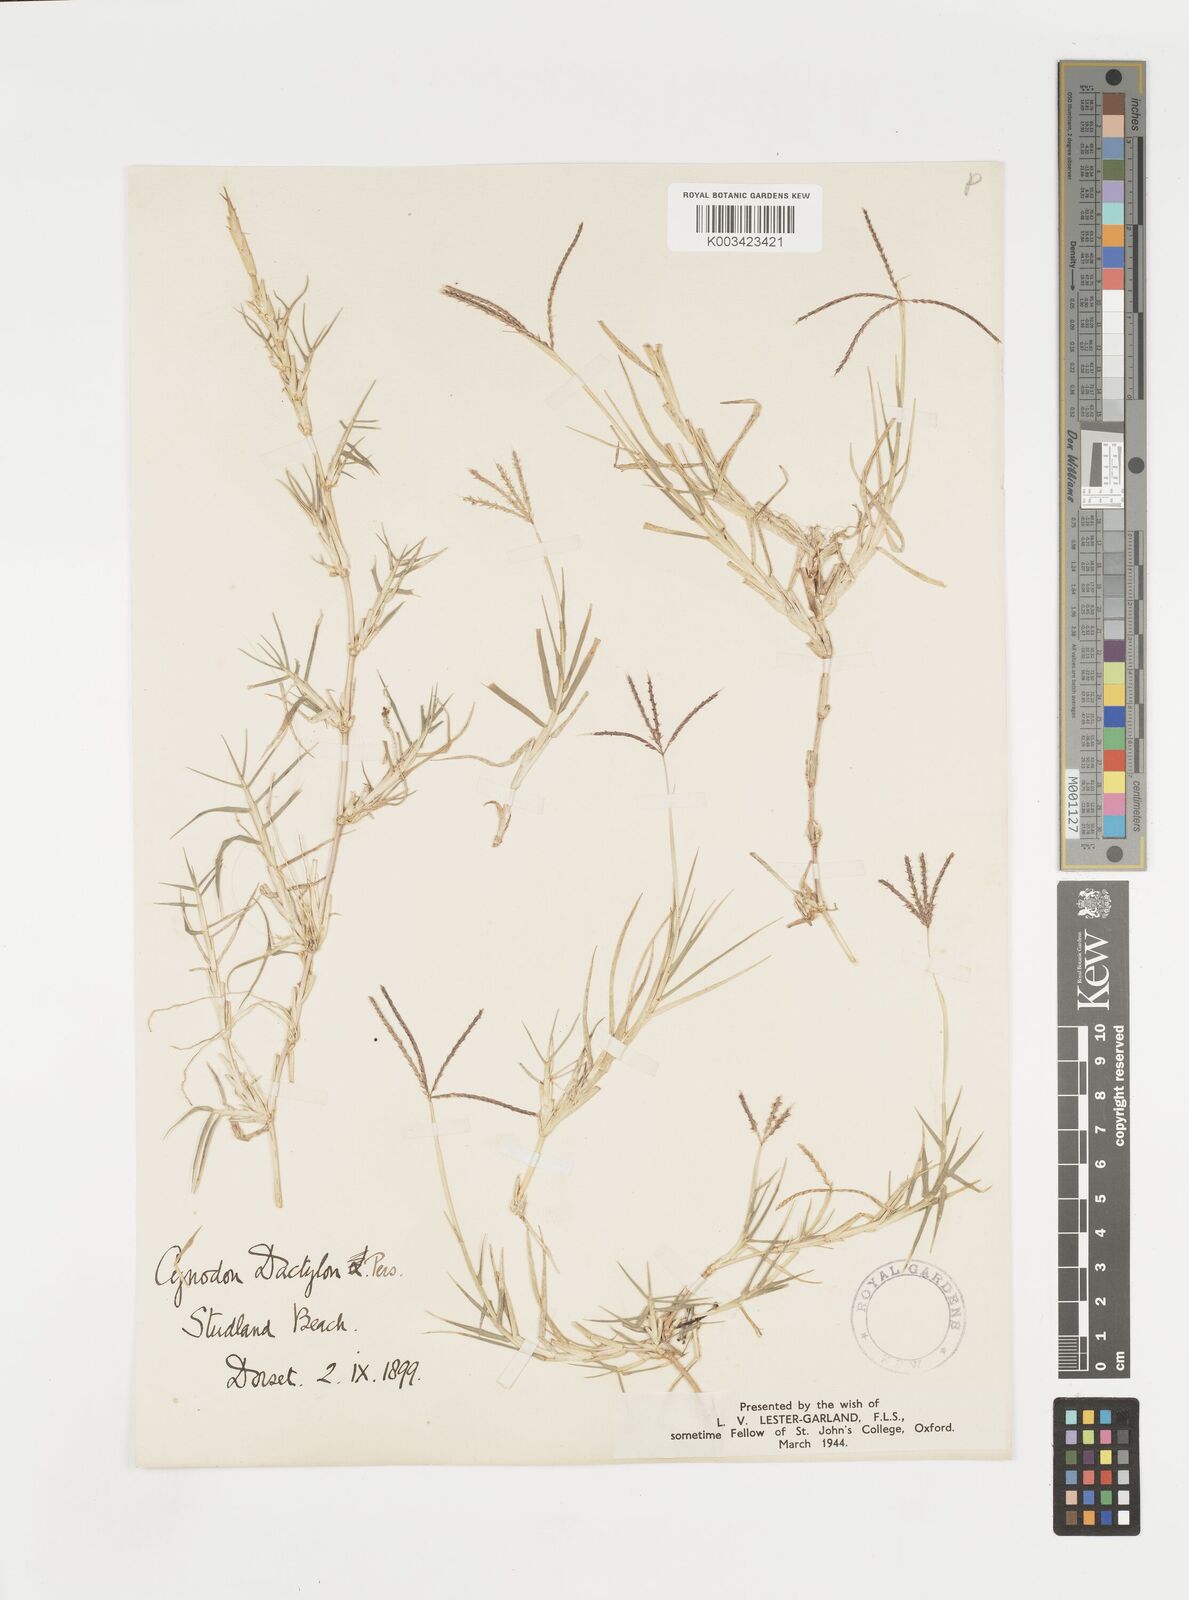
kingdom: Plantae
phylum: Tracheophyta
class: Liliopsida
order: Poales
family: Poaceae
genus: Cynodon
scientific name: Cynodon dactylon
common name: Bermuda grass
